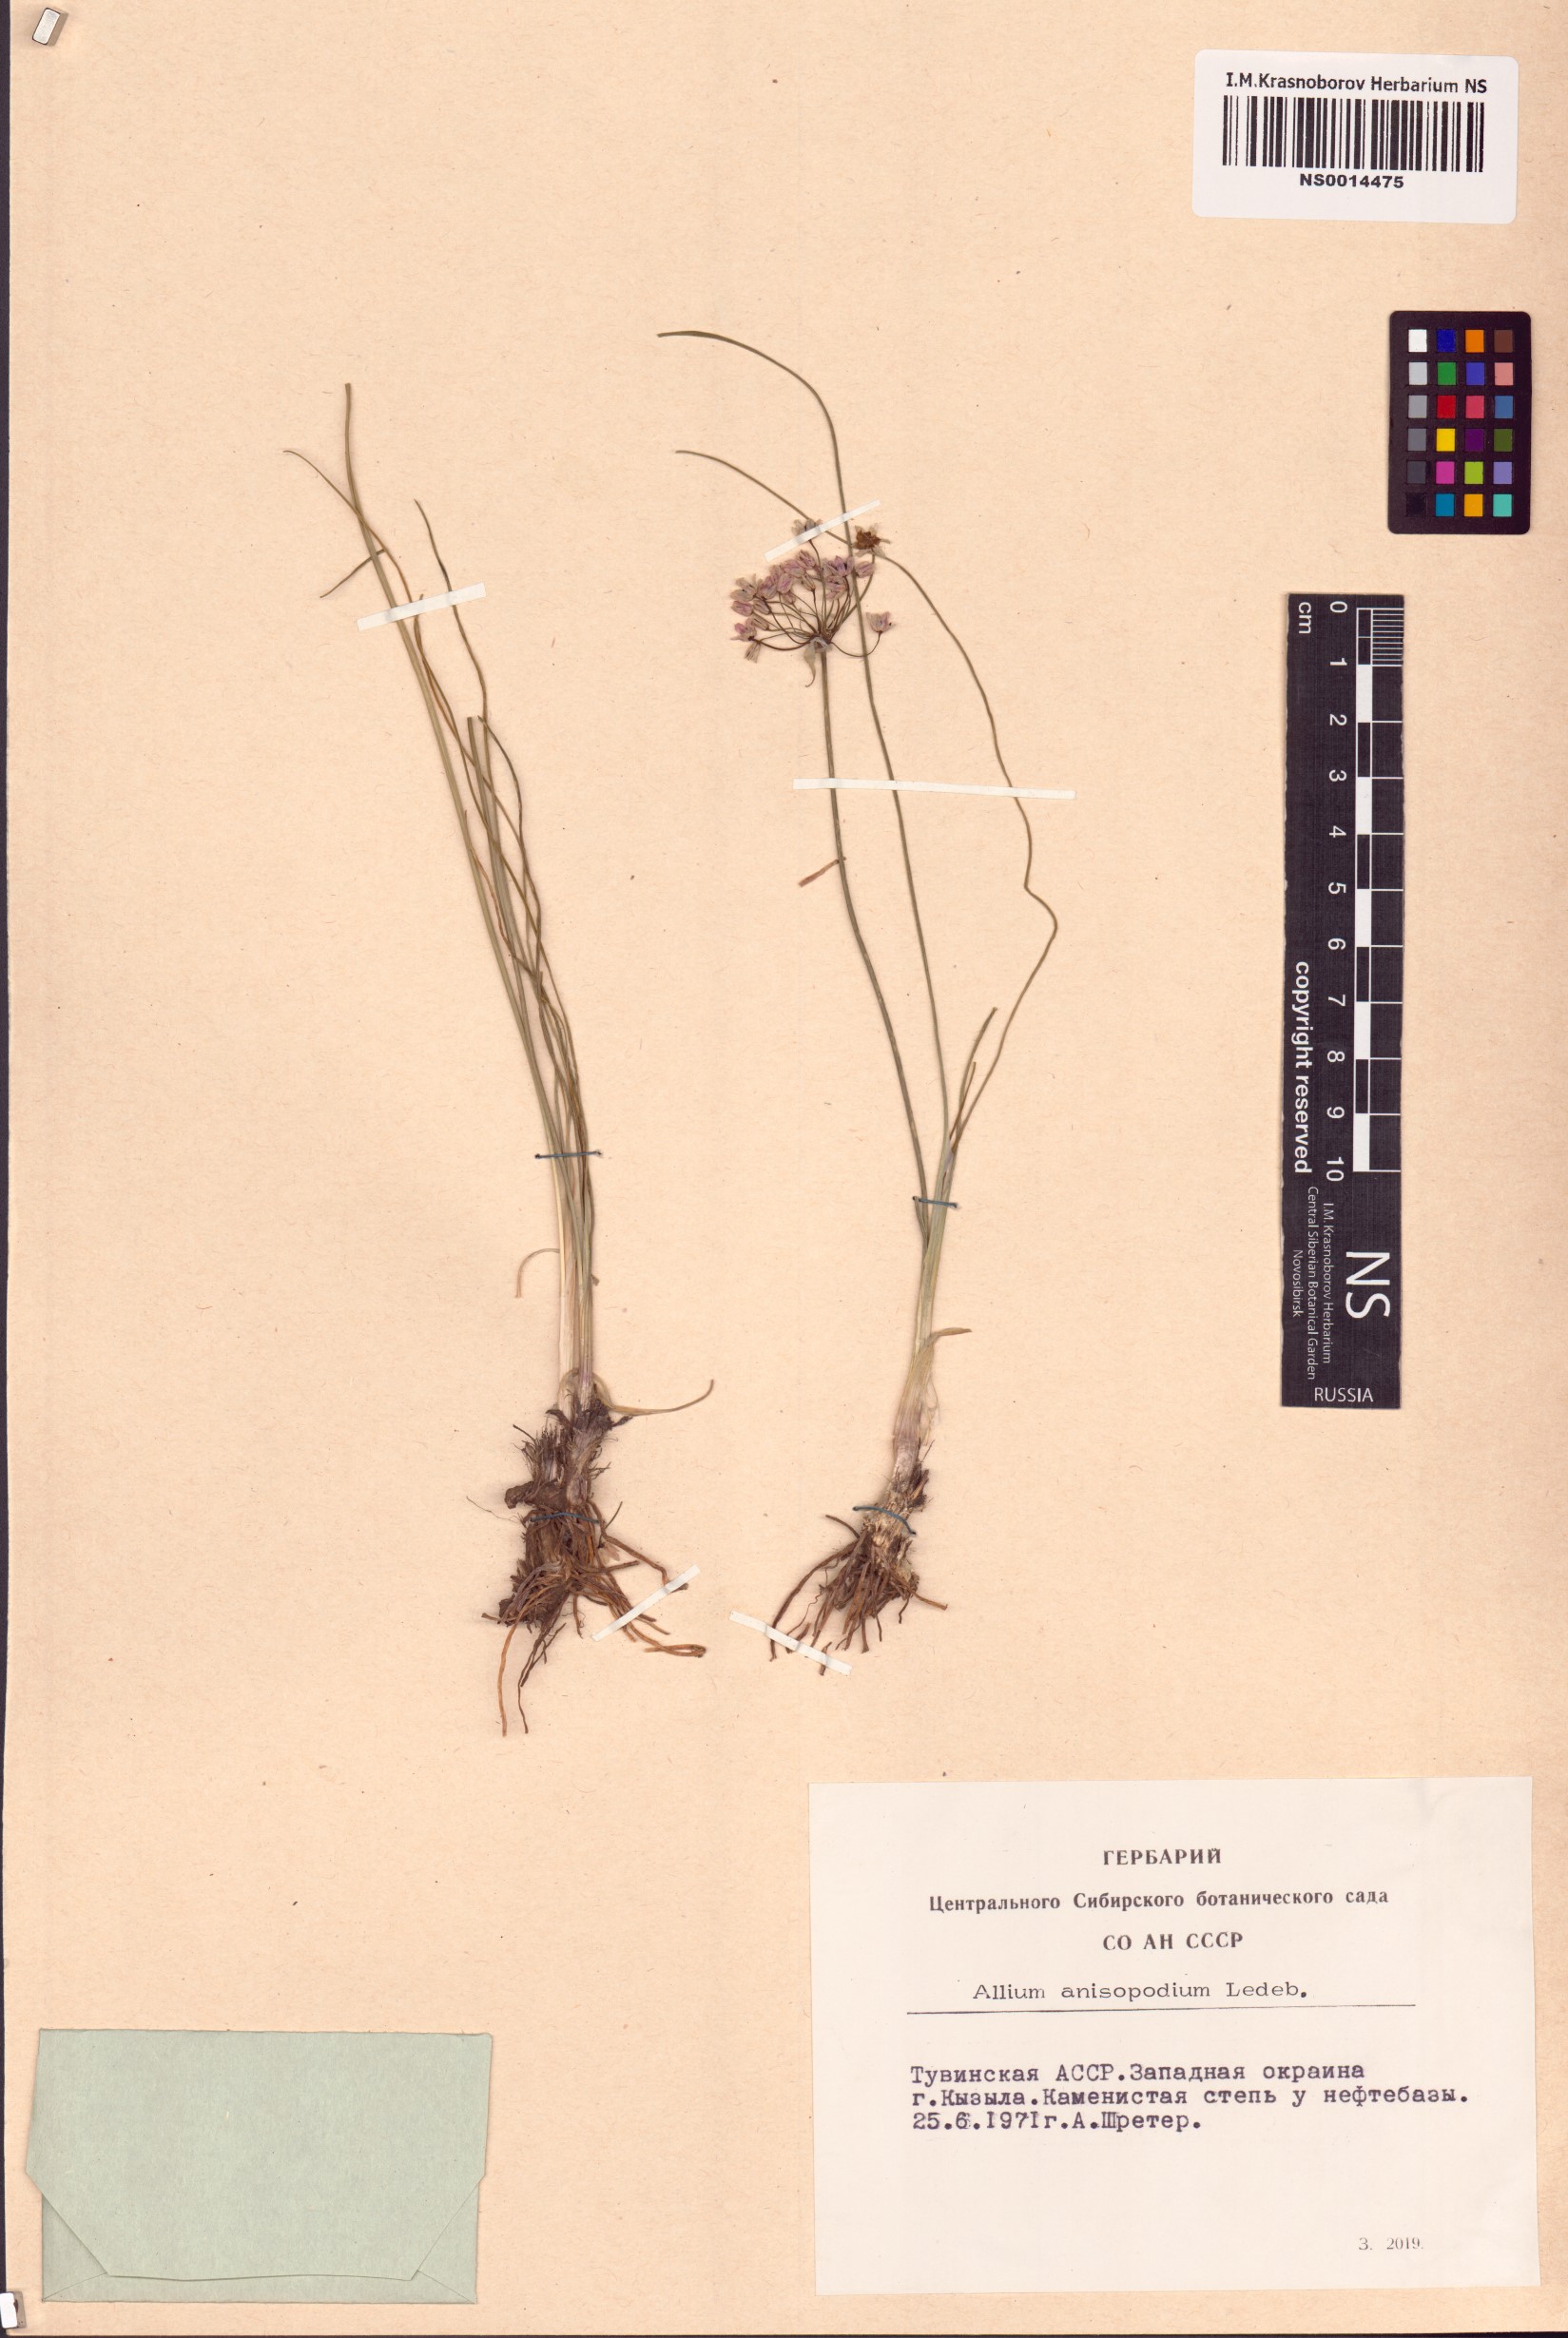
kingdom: Plantae
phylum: Tracheophyta
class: Liliopsida
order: Asparagales
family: Amaryllidaceae
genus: Allium
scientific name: Allium anisopodium
